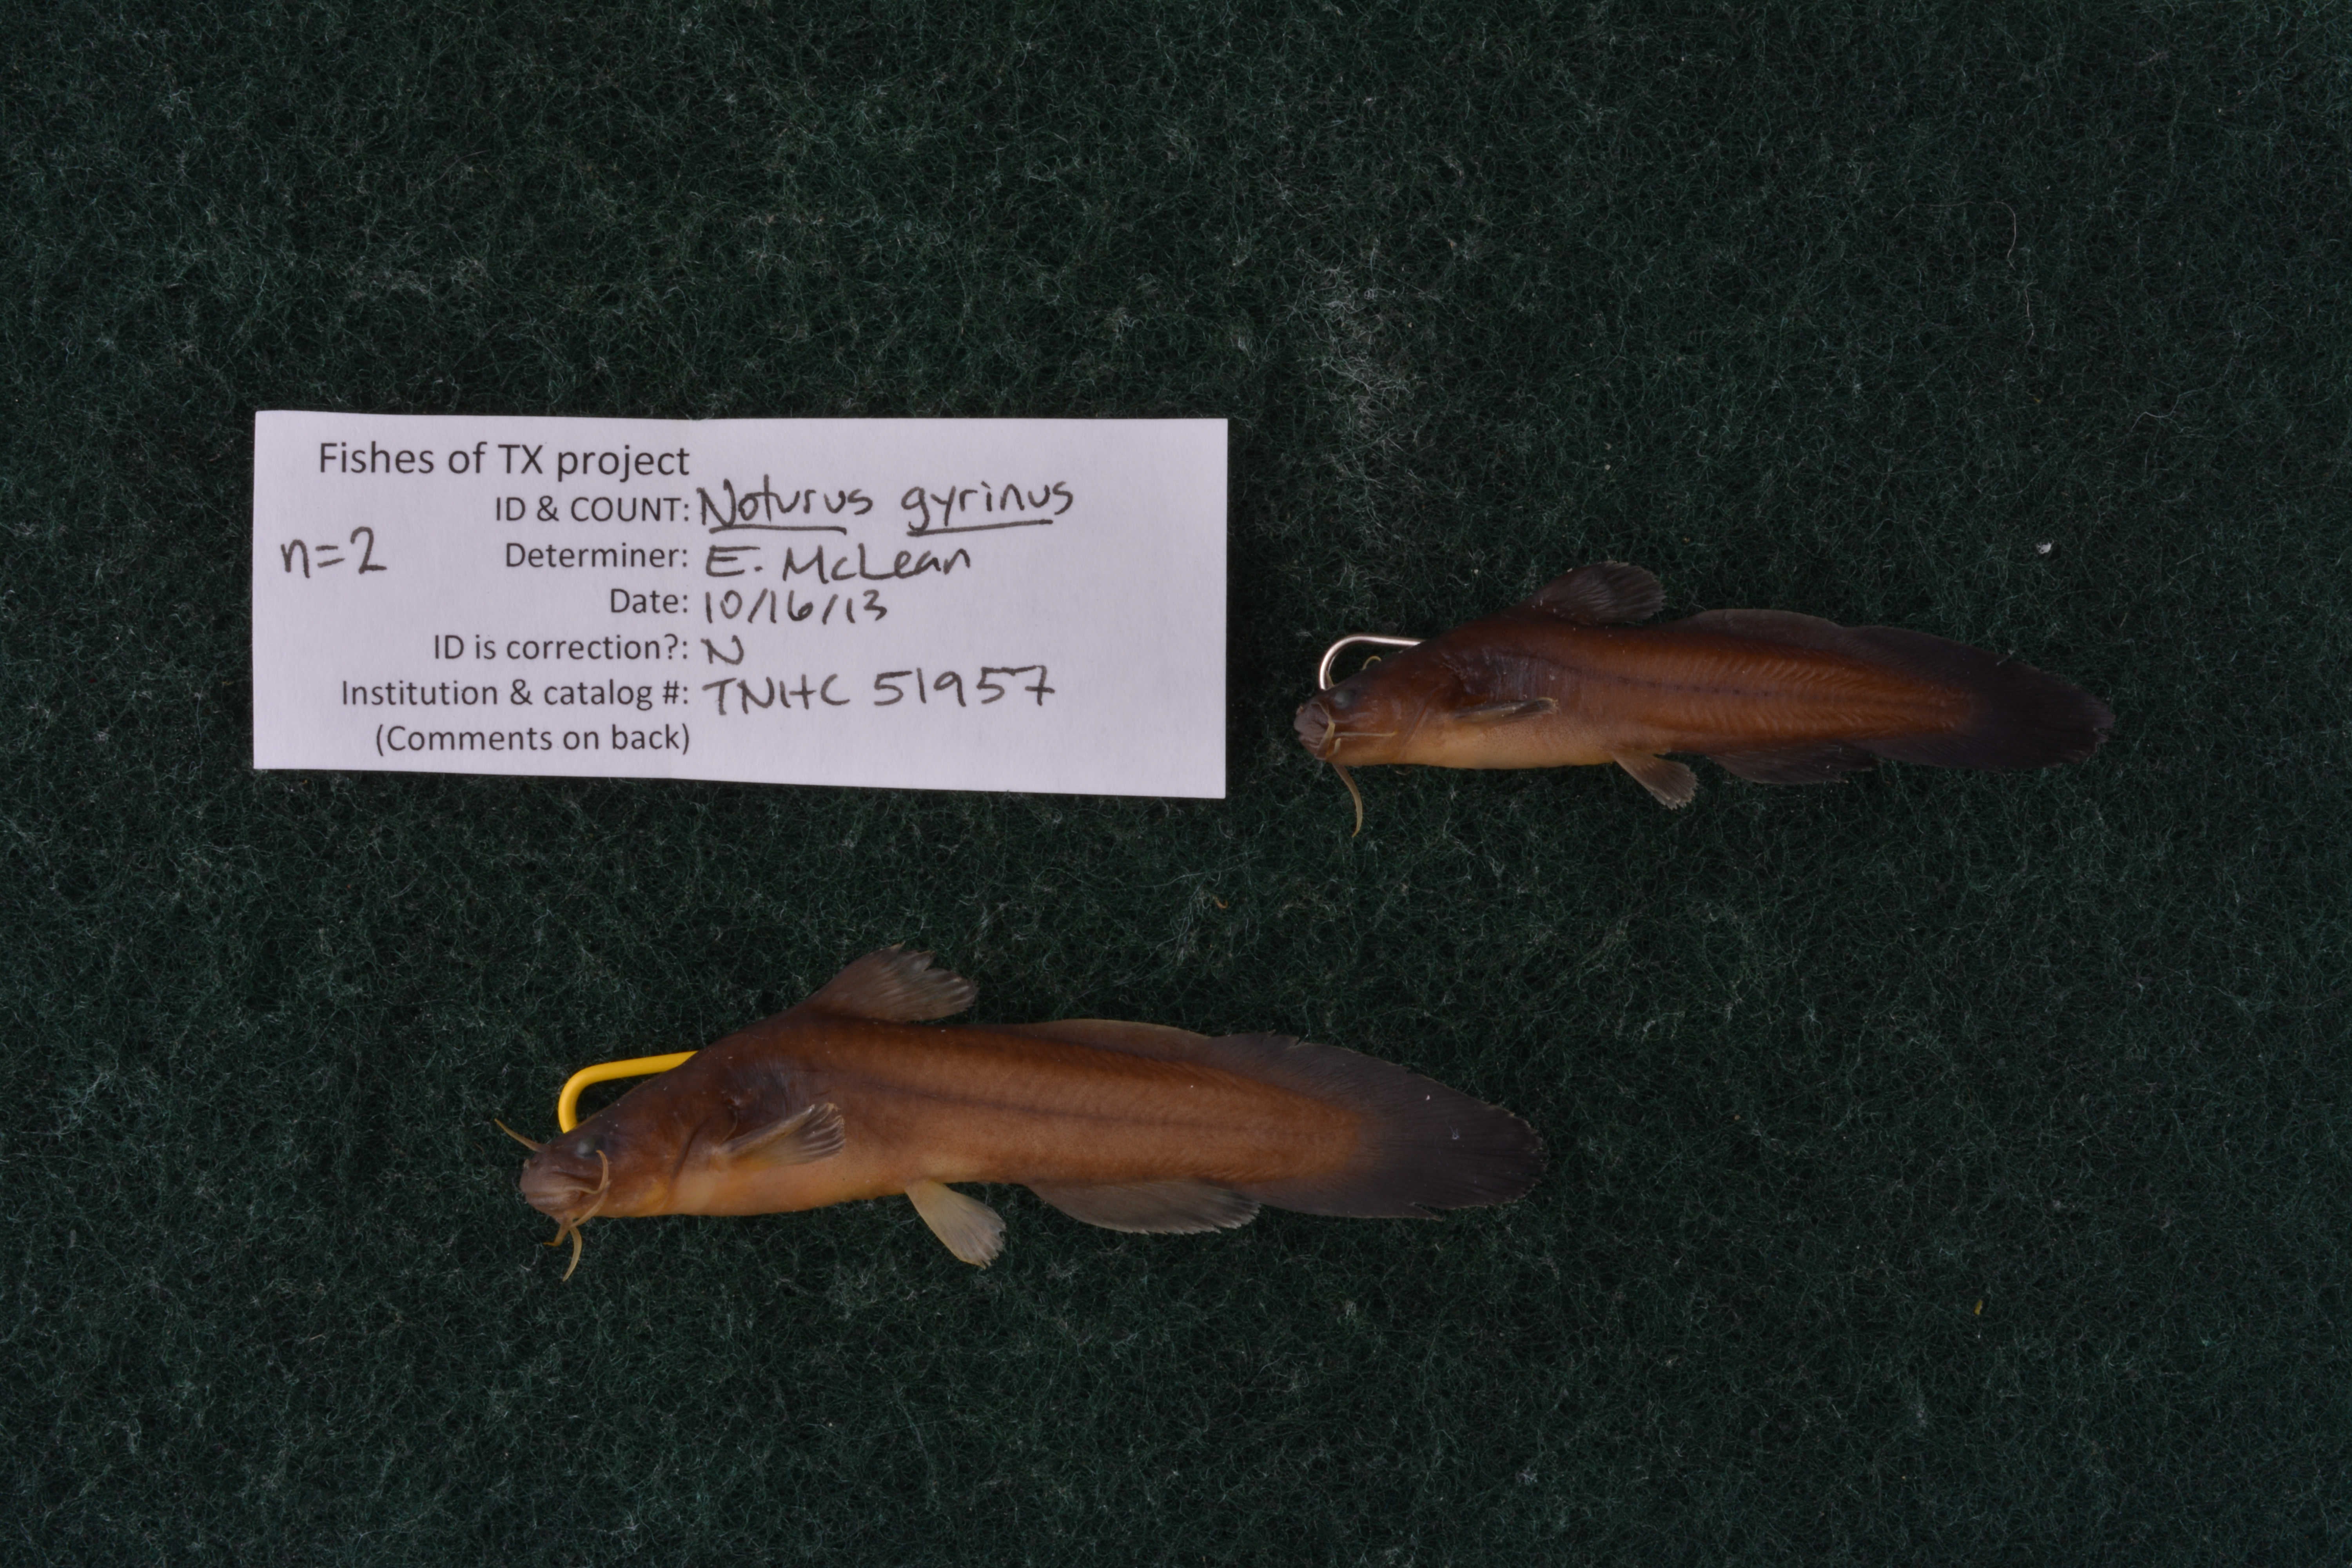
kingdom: Animalia
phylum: Chordata
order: Siluriformes
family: Ictaluridae
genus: Noturus
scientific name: Noturus gyrinus
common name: Tadpole madtom
